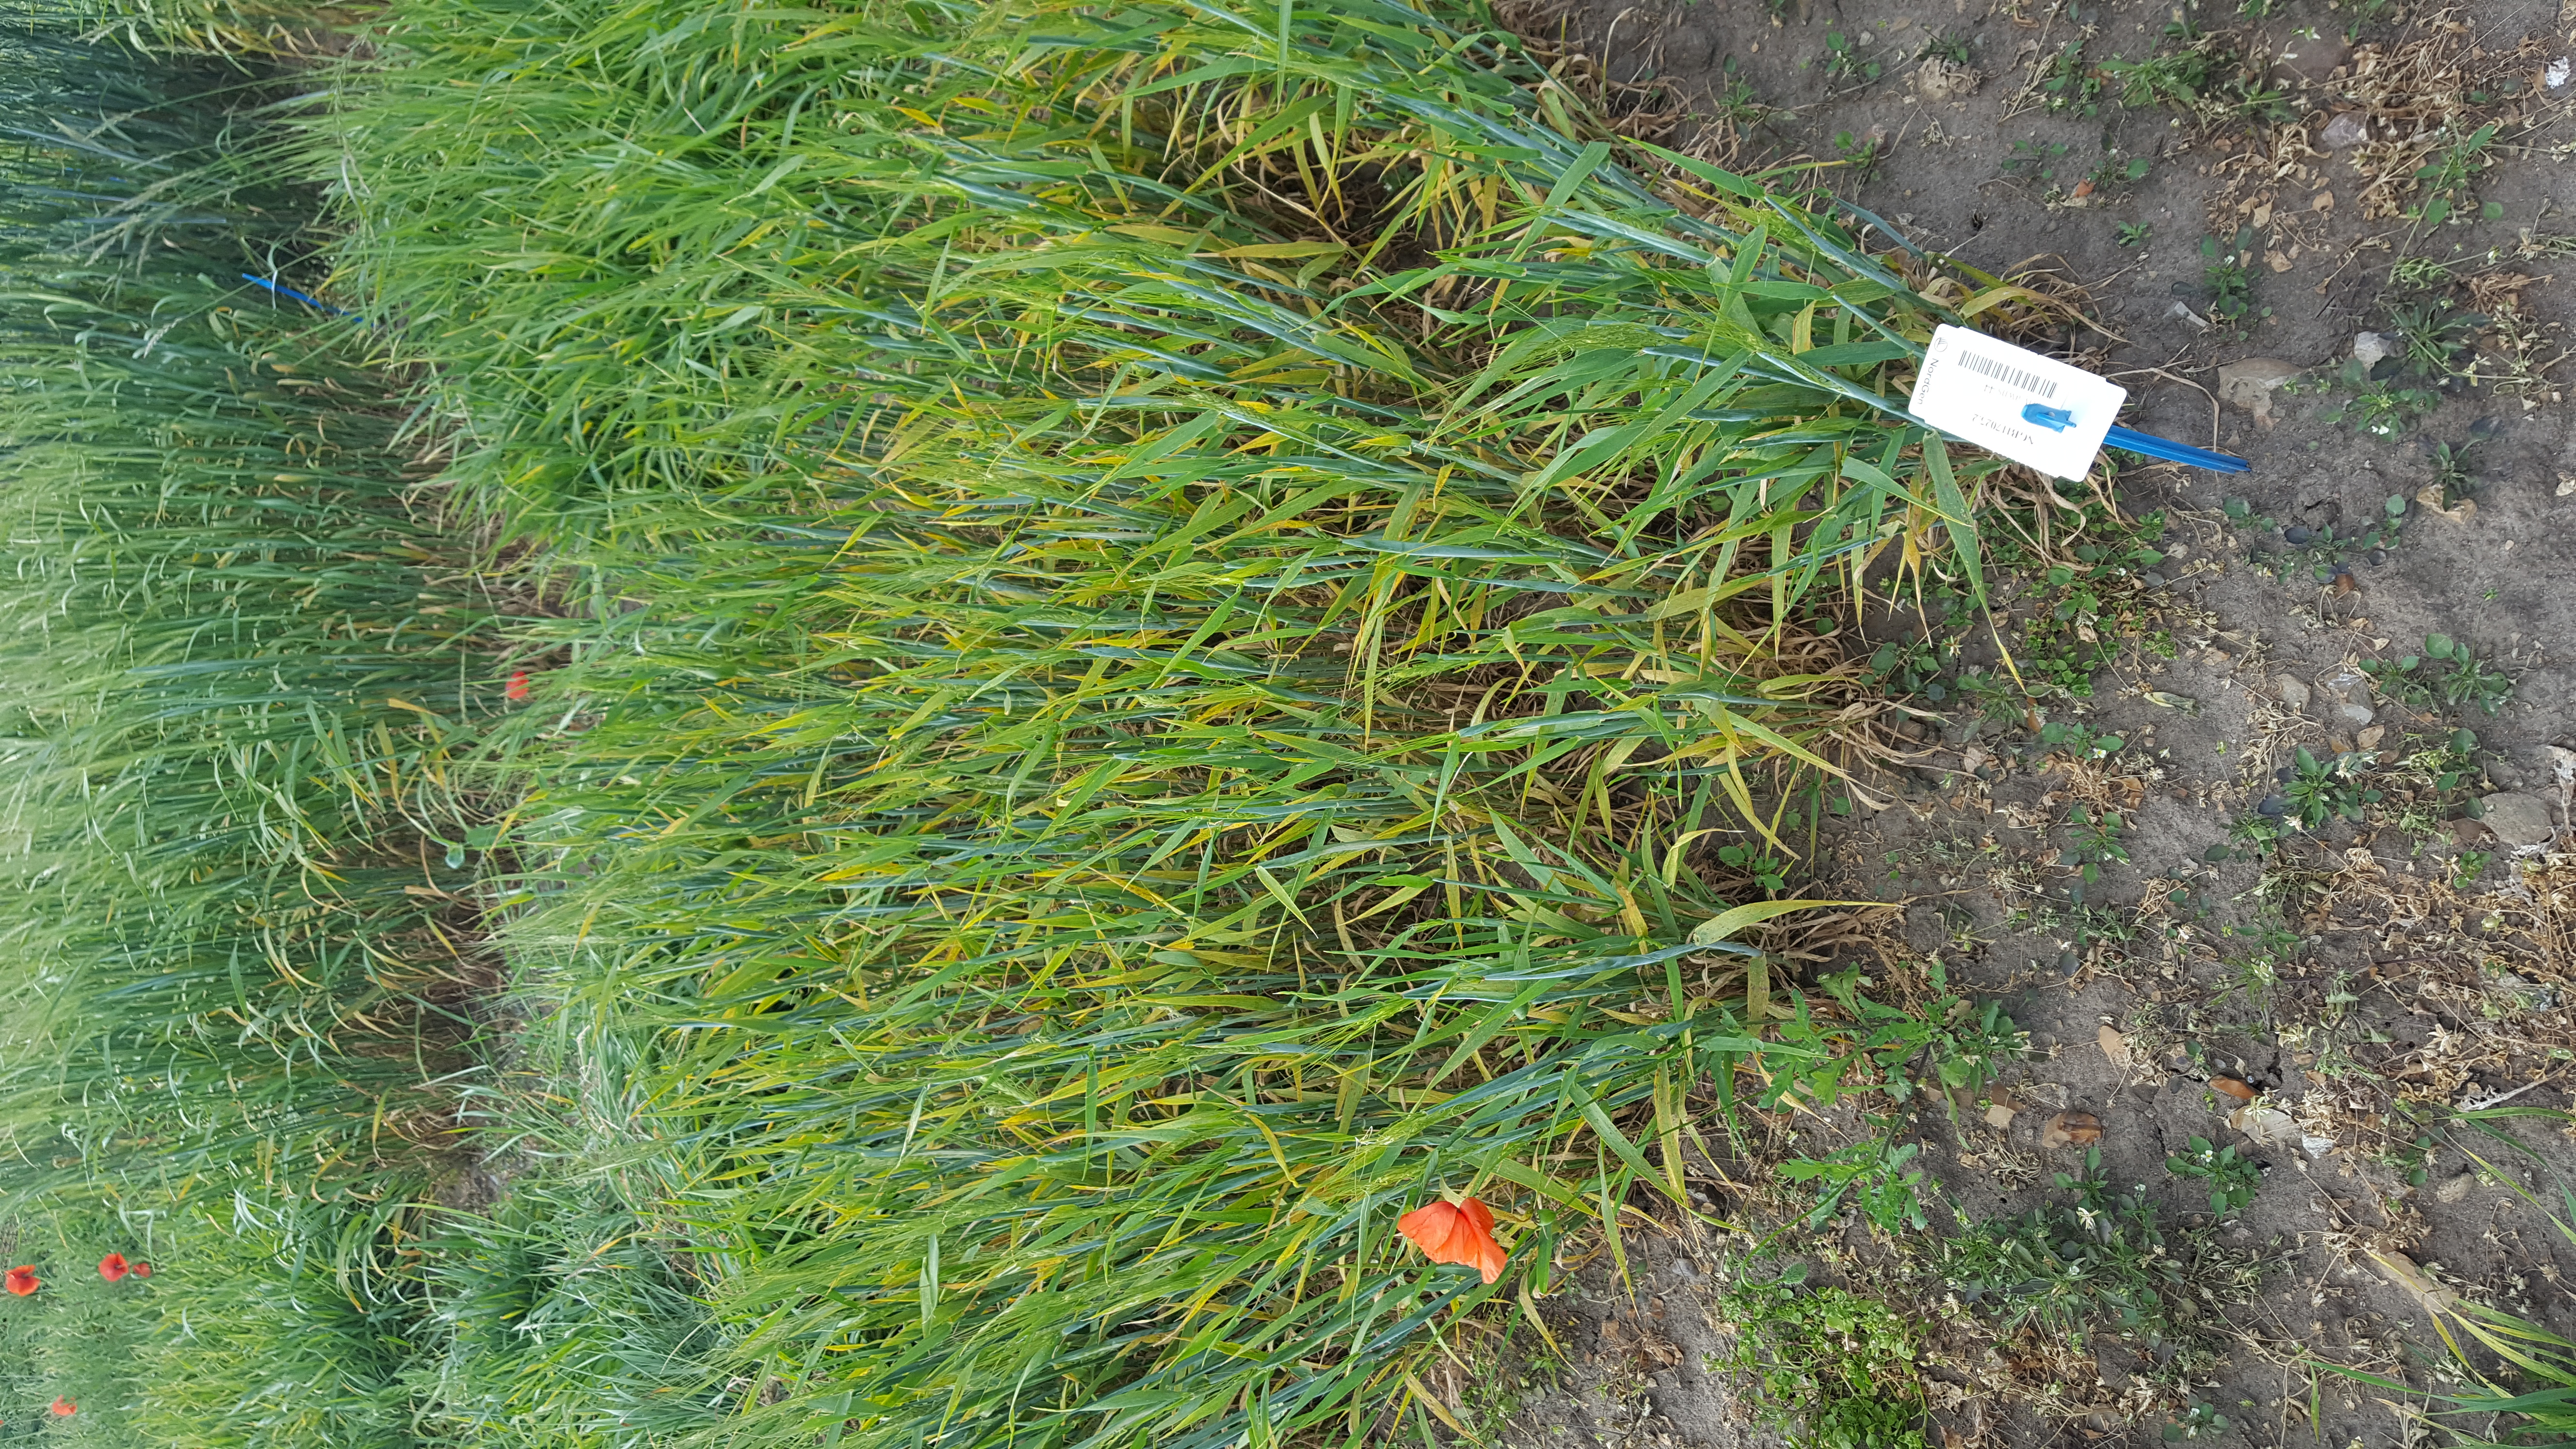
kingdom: Plantae
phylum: Tracheophyta
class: Liliopsida
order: Poales
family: Poaceae
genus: Hordeum
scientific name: Hordeum vulgare
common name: Common barley
